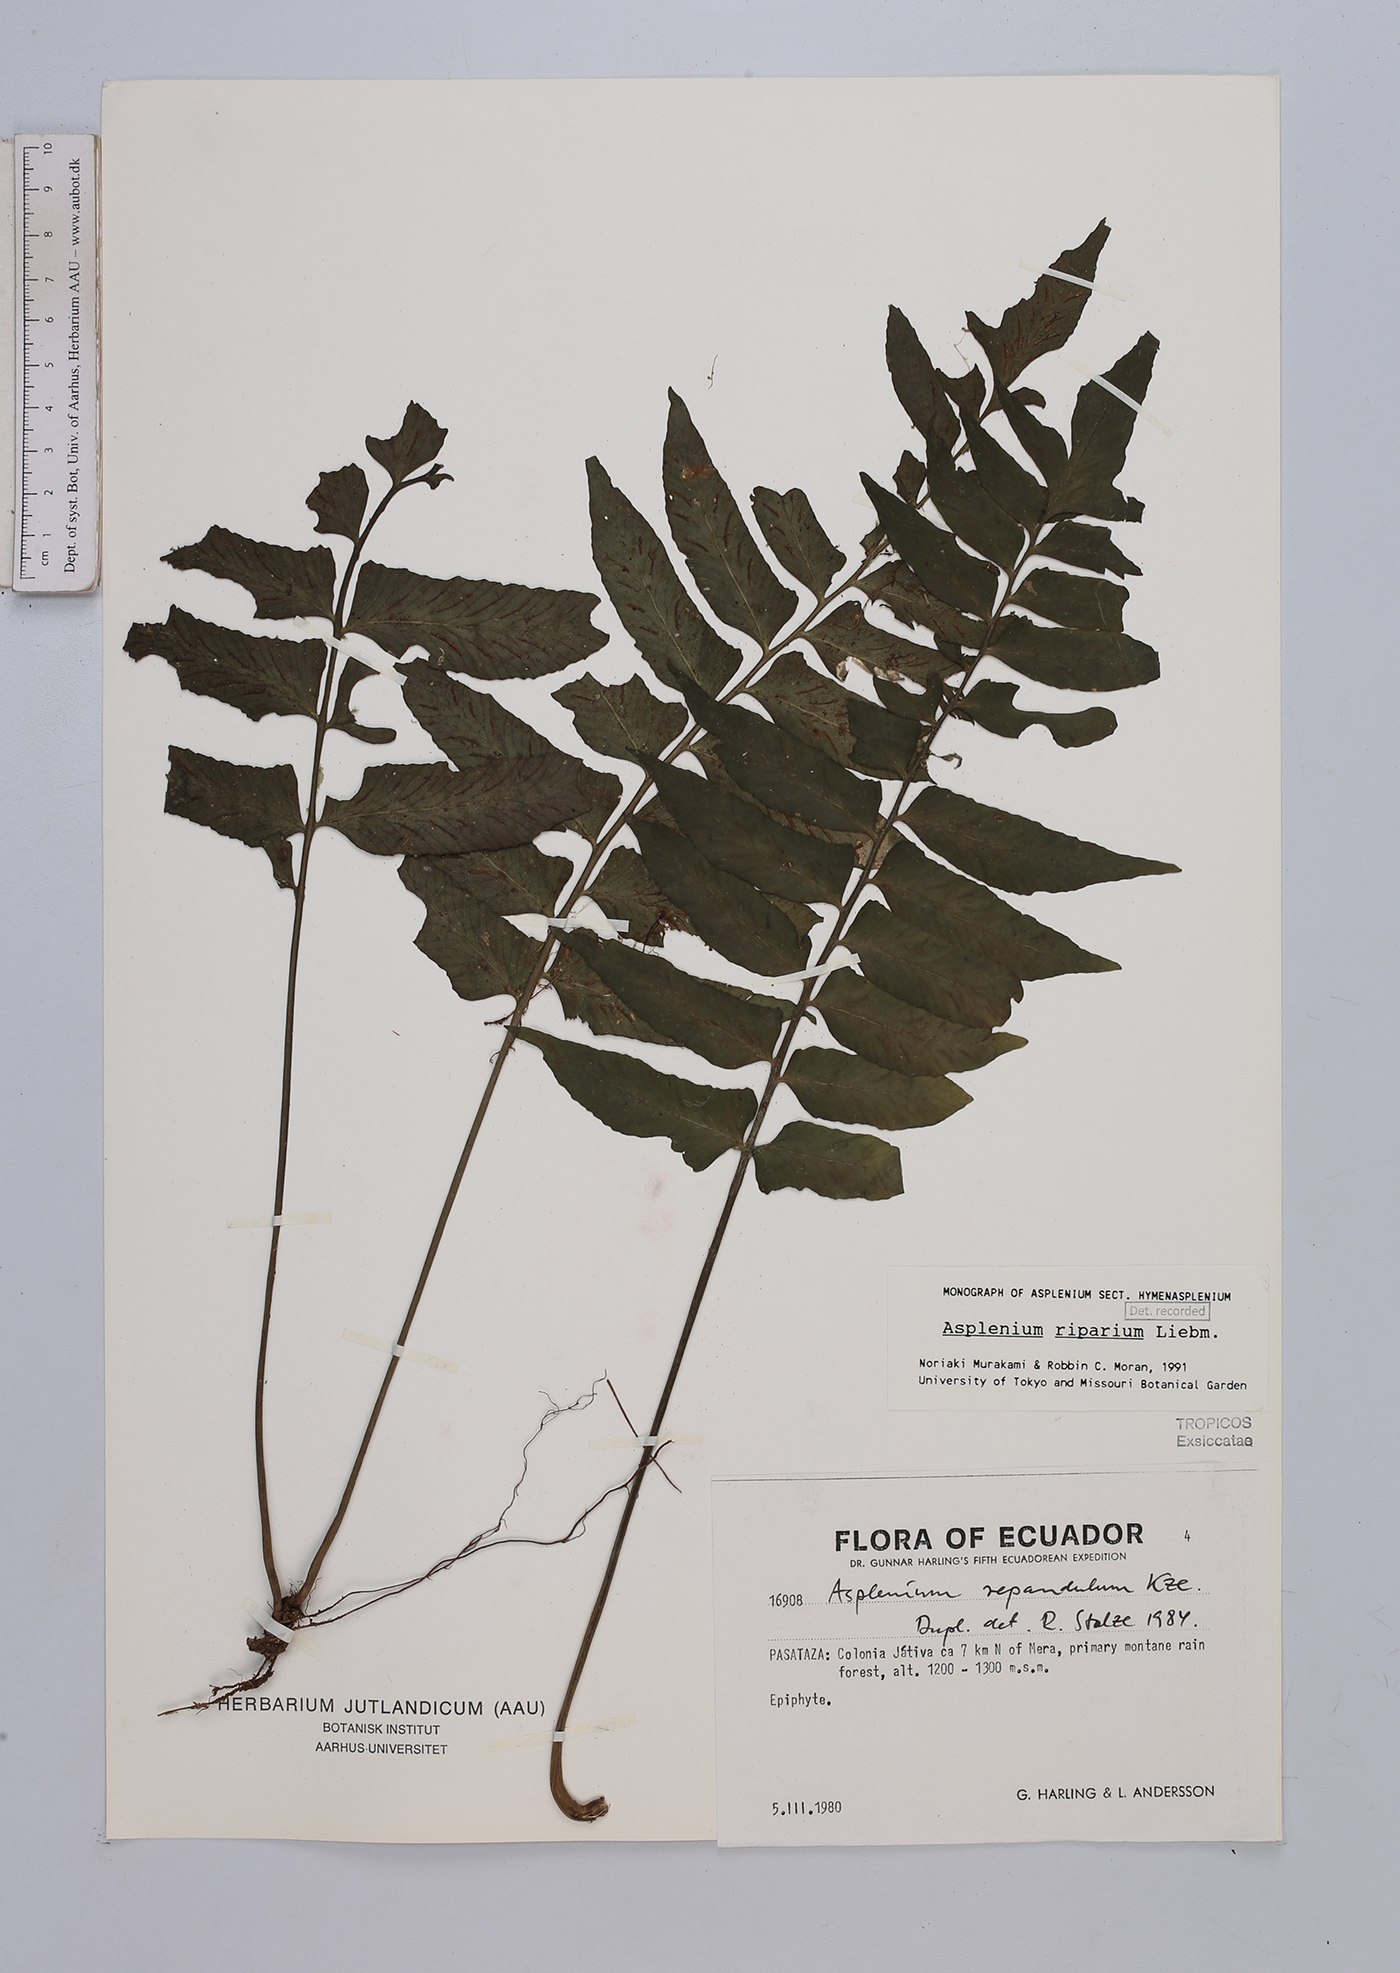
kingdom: Plantae
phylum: Tracheophyta
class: Polypodiopsida
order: Polypodiales
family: Aspleniaceae
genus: Hymenasplenium
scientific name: Hymenasplenium riparium
